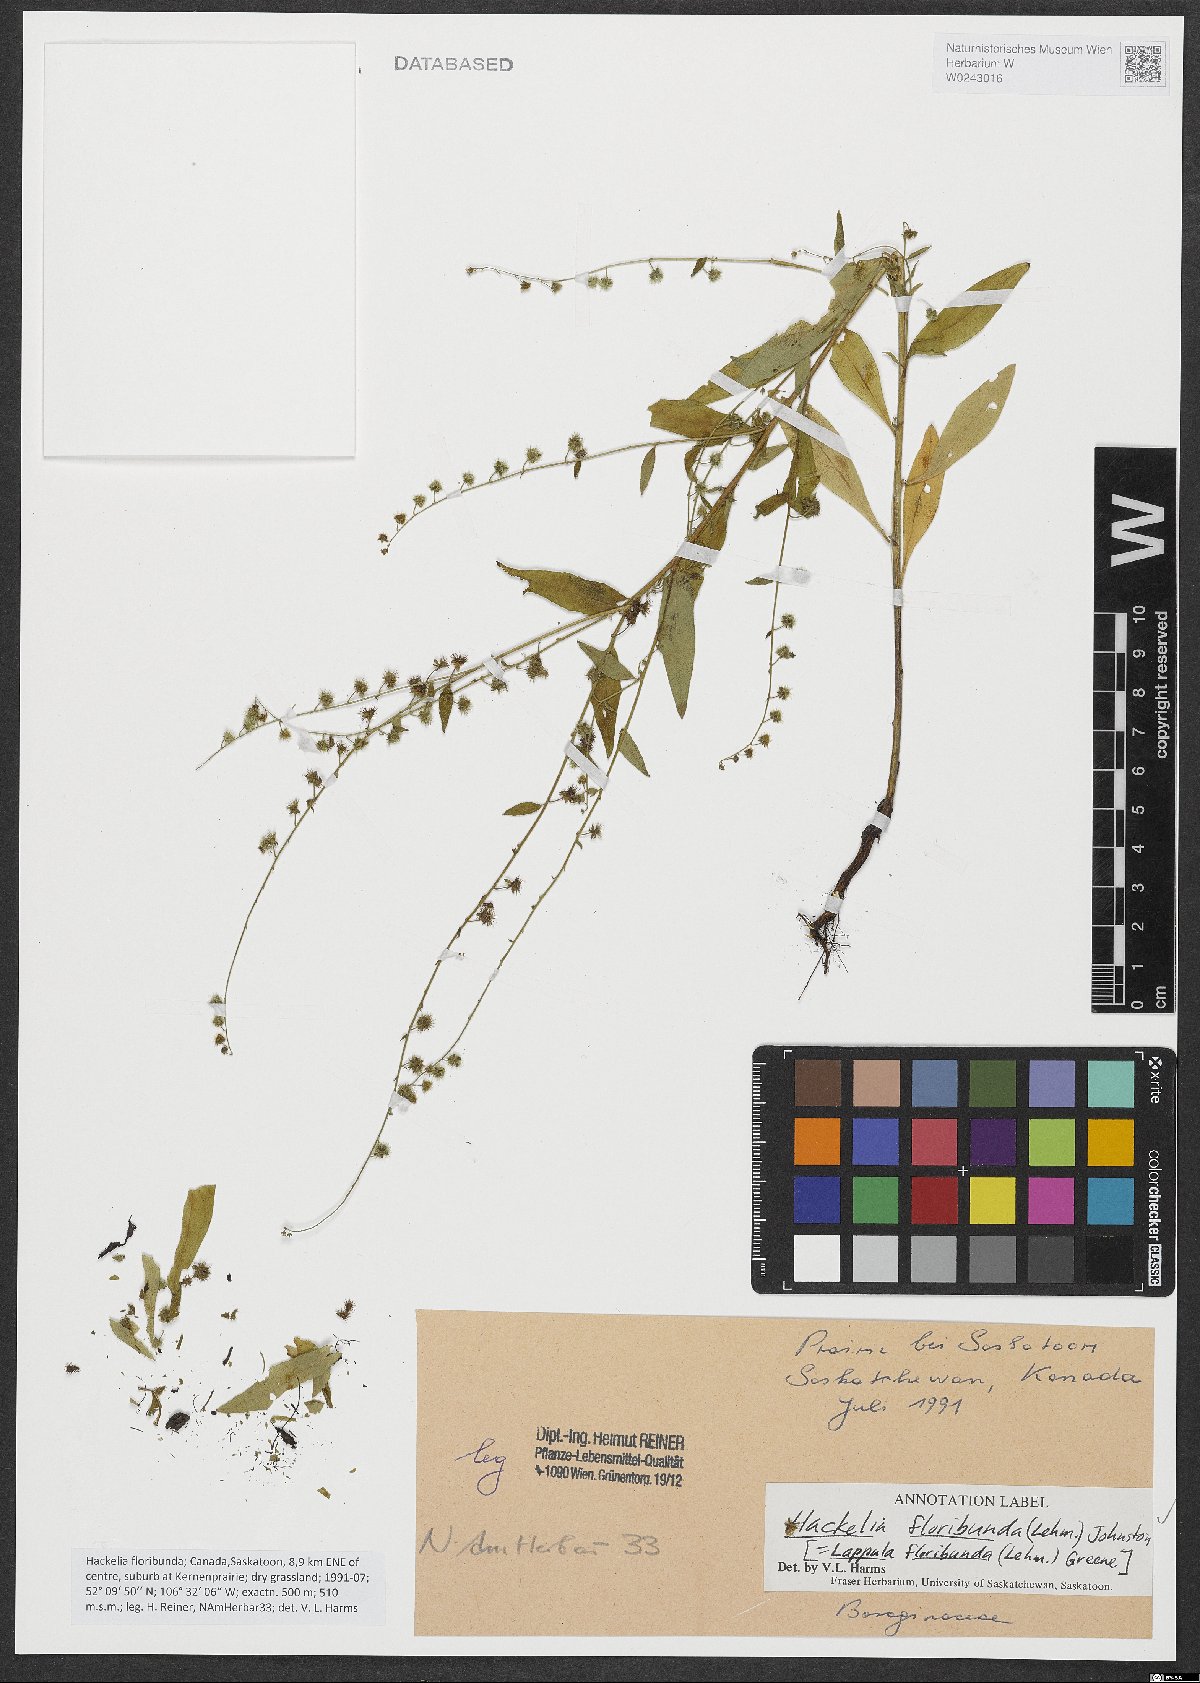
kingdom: Plantae
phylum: Tracheophyta
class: Magnoliopsida
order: Boraginales
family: Boraginaceae
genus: Hackelia
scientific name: Hackelia floribunda
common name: Large-flowered stickseed
